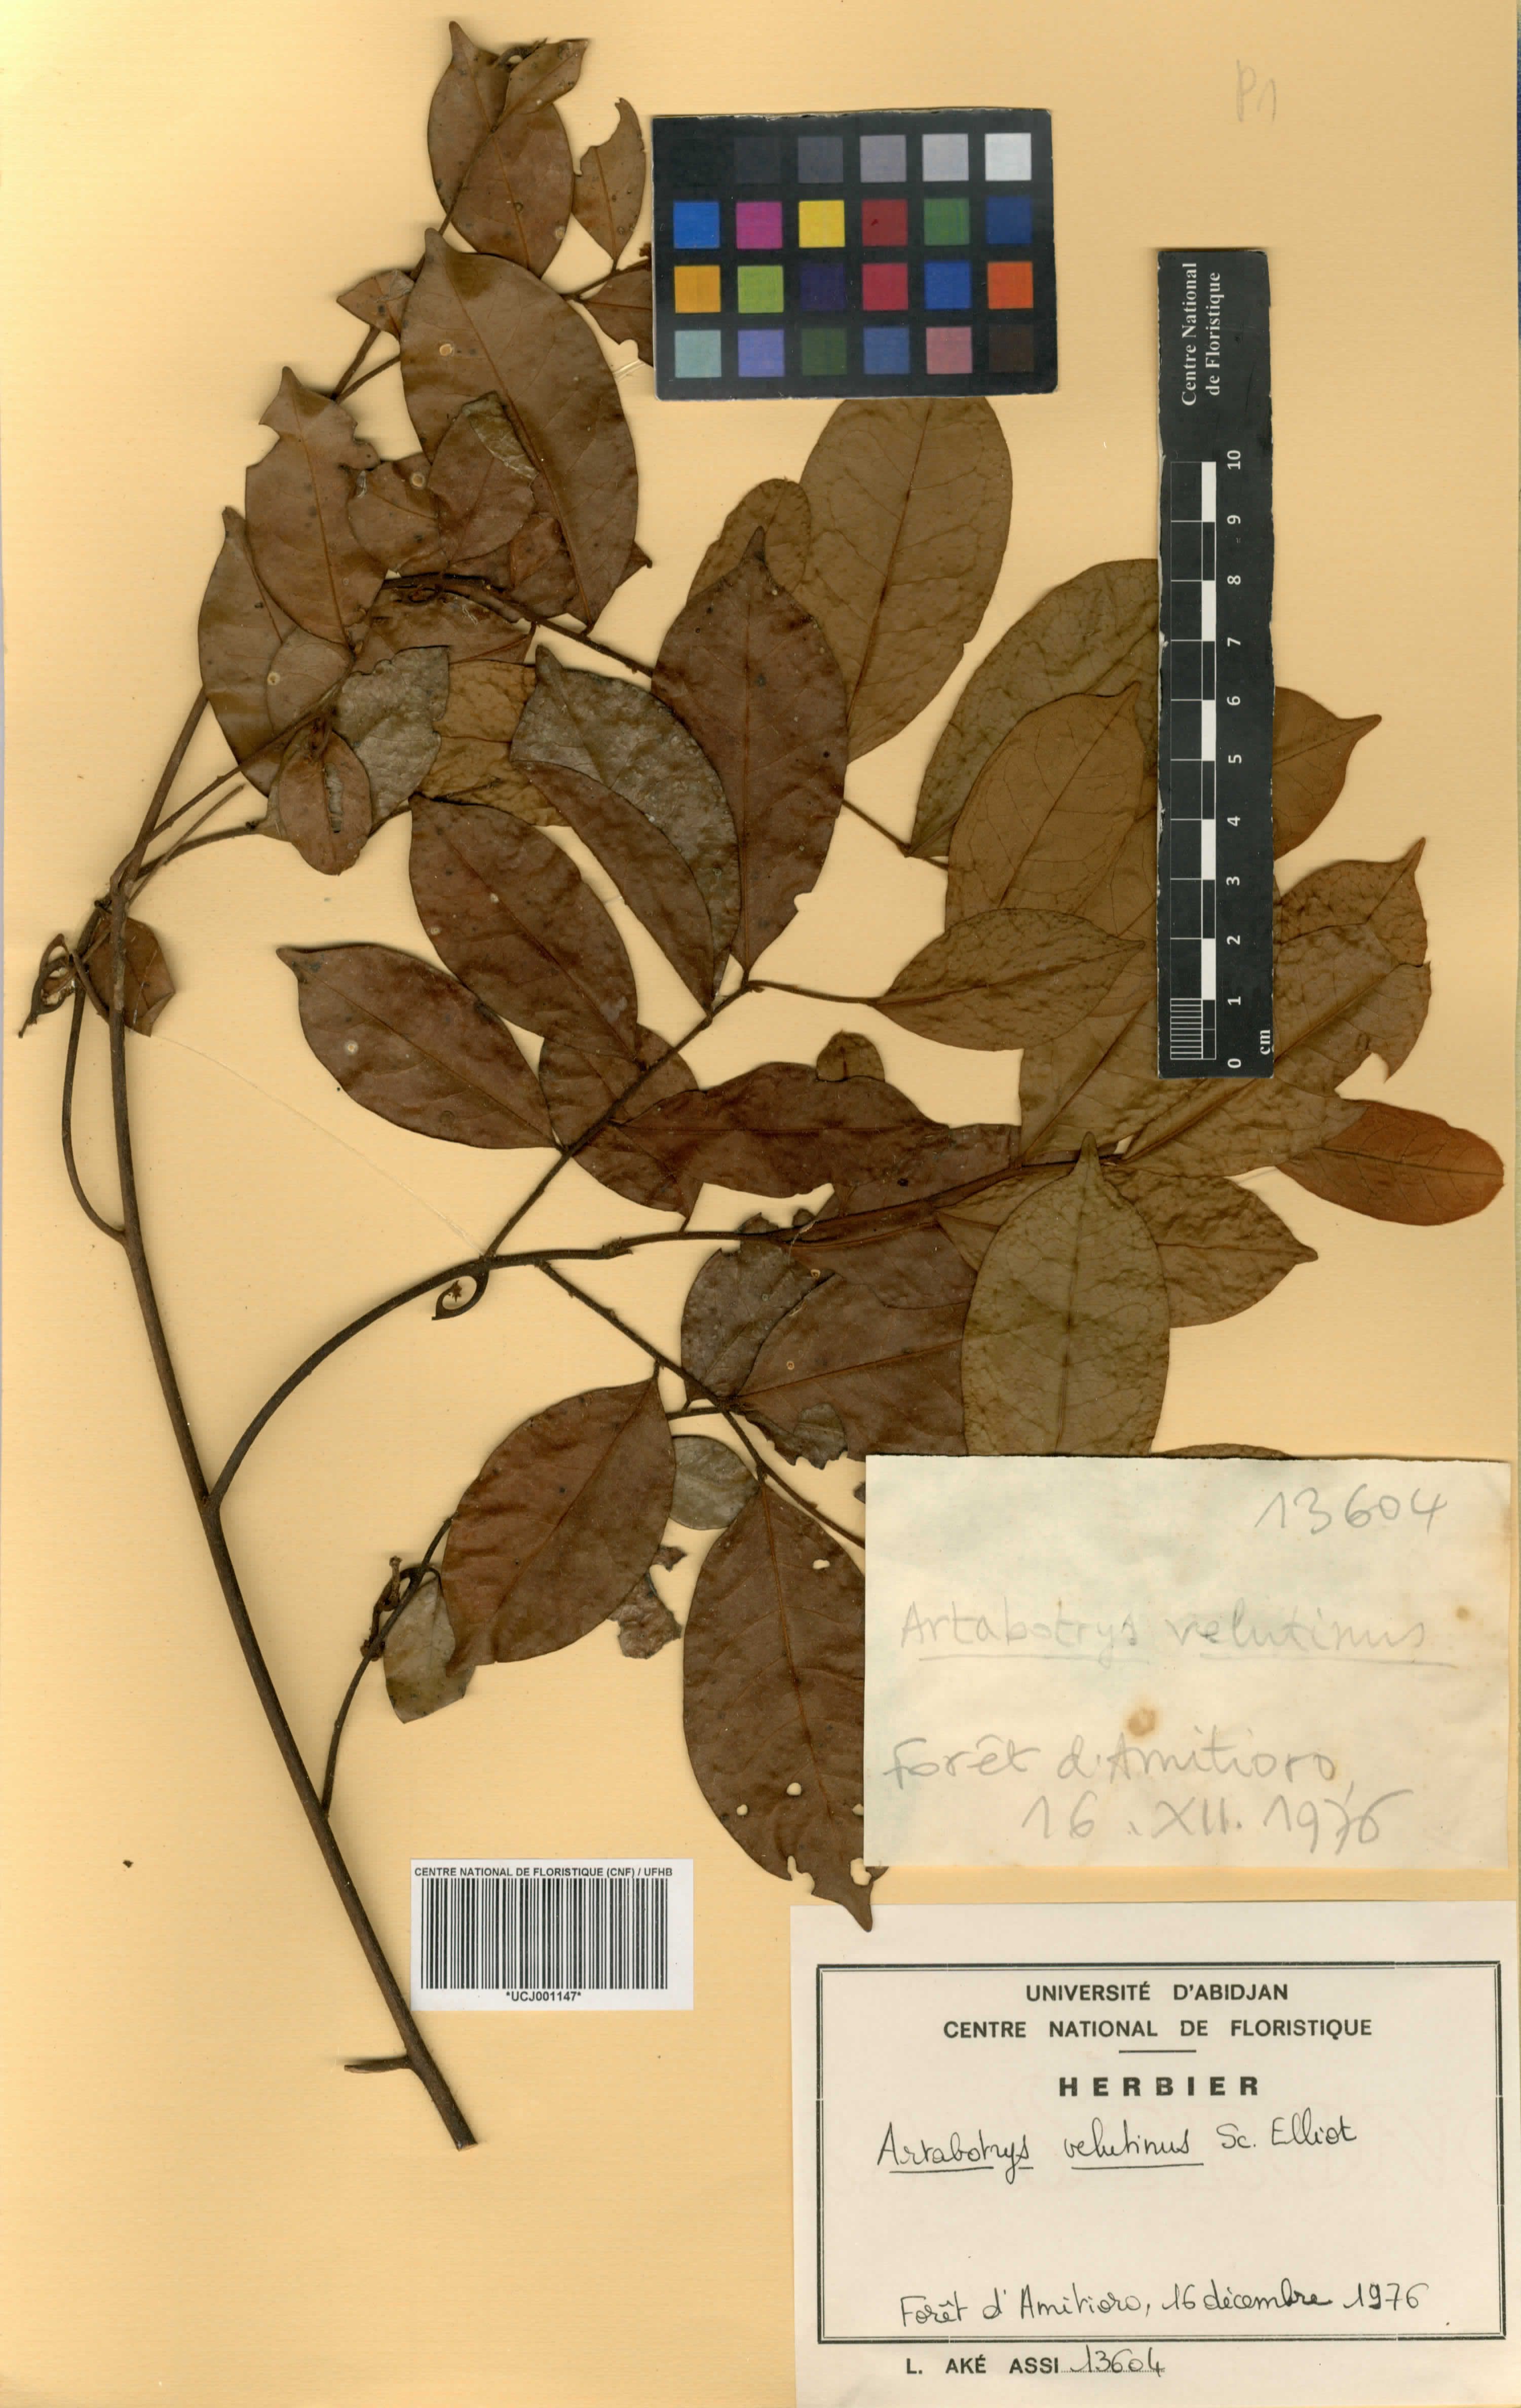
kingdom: Plantae
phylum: Tracheophyta
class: Magnoliopsida
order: Magnoliales
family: Annonaceae
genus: Artabotrys
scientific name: Artabotrys velutinus
